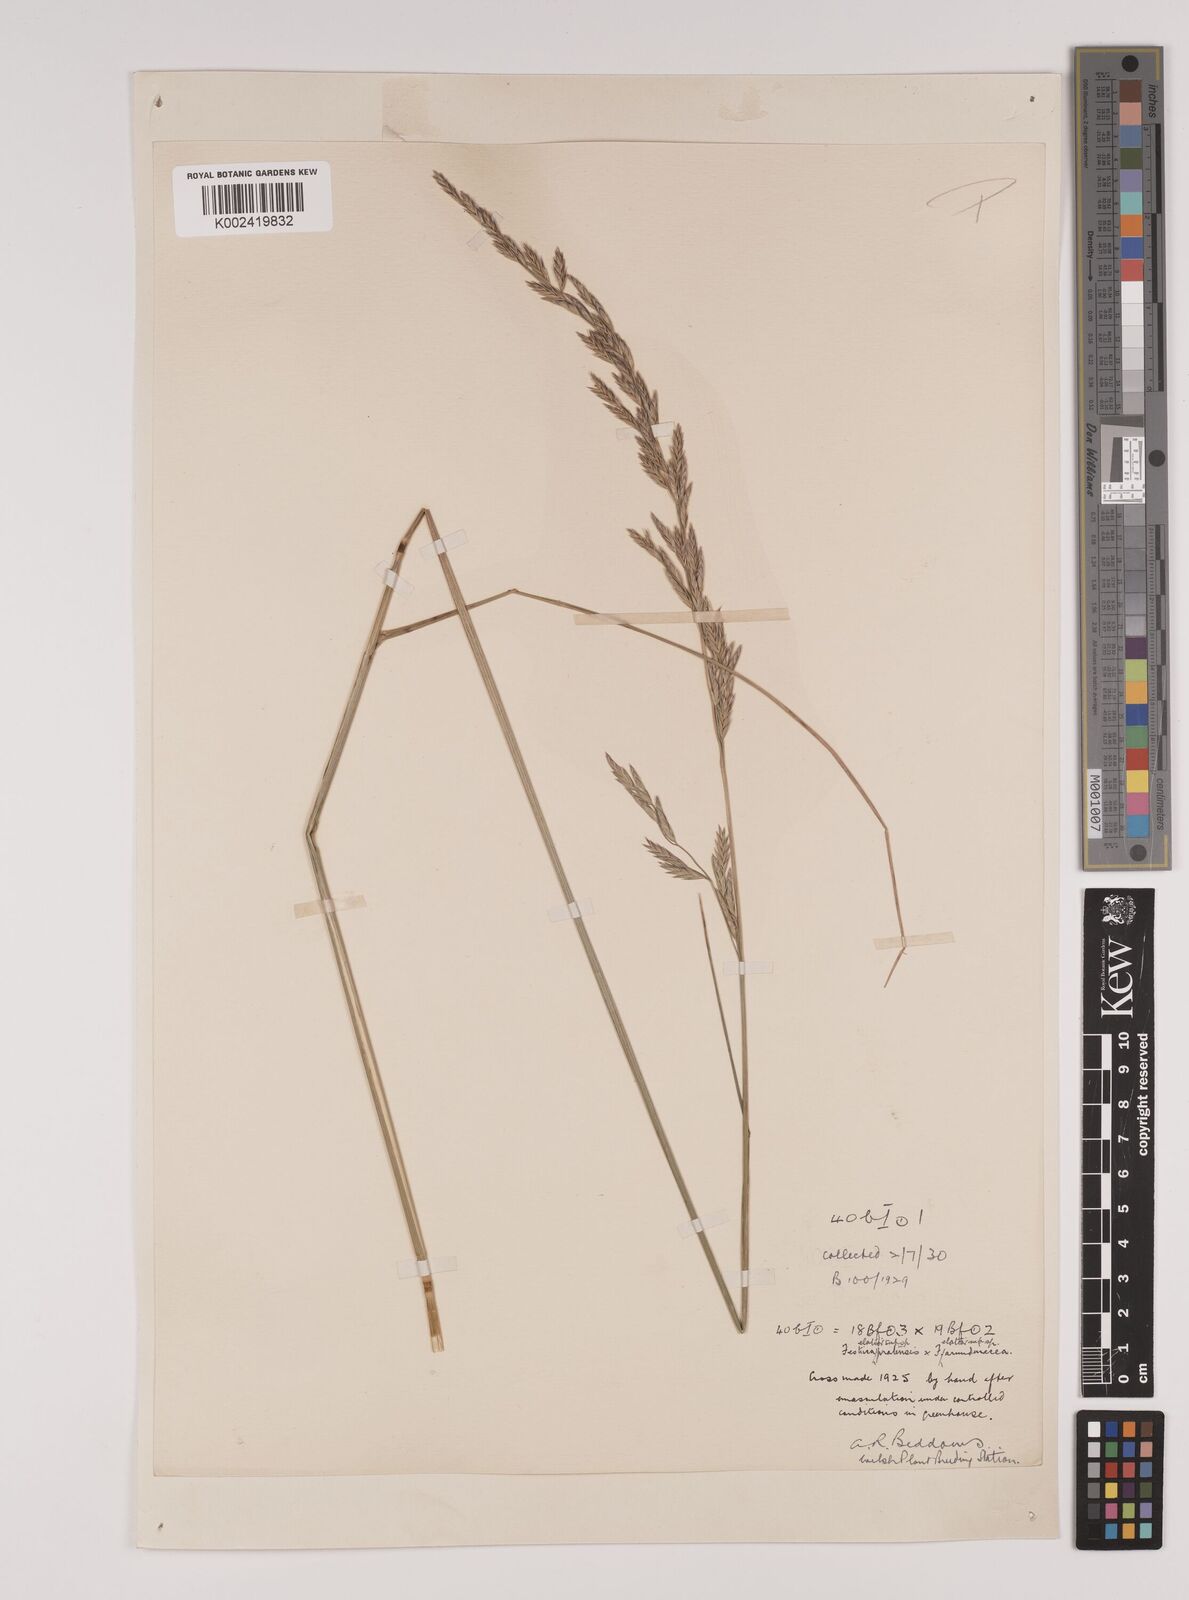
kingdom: Plantae
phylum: Tracheophyta
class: Liliopsida
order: Poales
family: Poaceae
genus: Festuca
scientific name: Festuca rubra
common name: Red fescue
